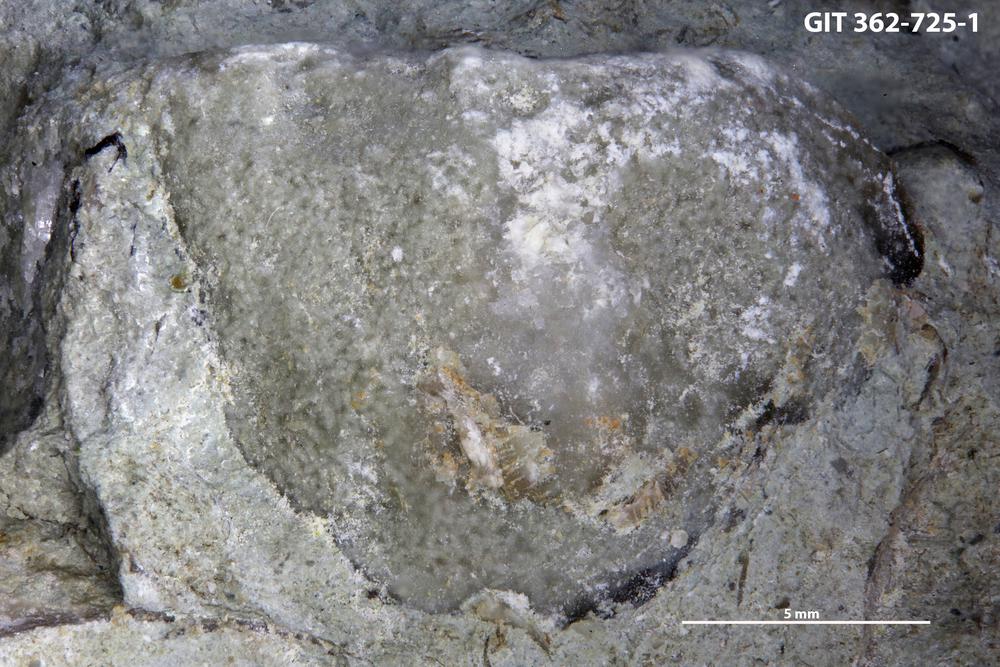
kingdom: Animalia
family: Coprulidae
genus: Coprulus
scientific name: Coprulus
